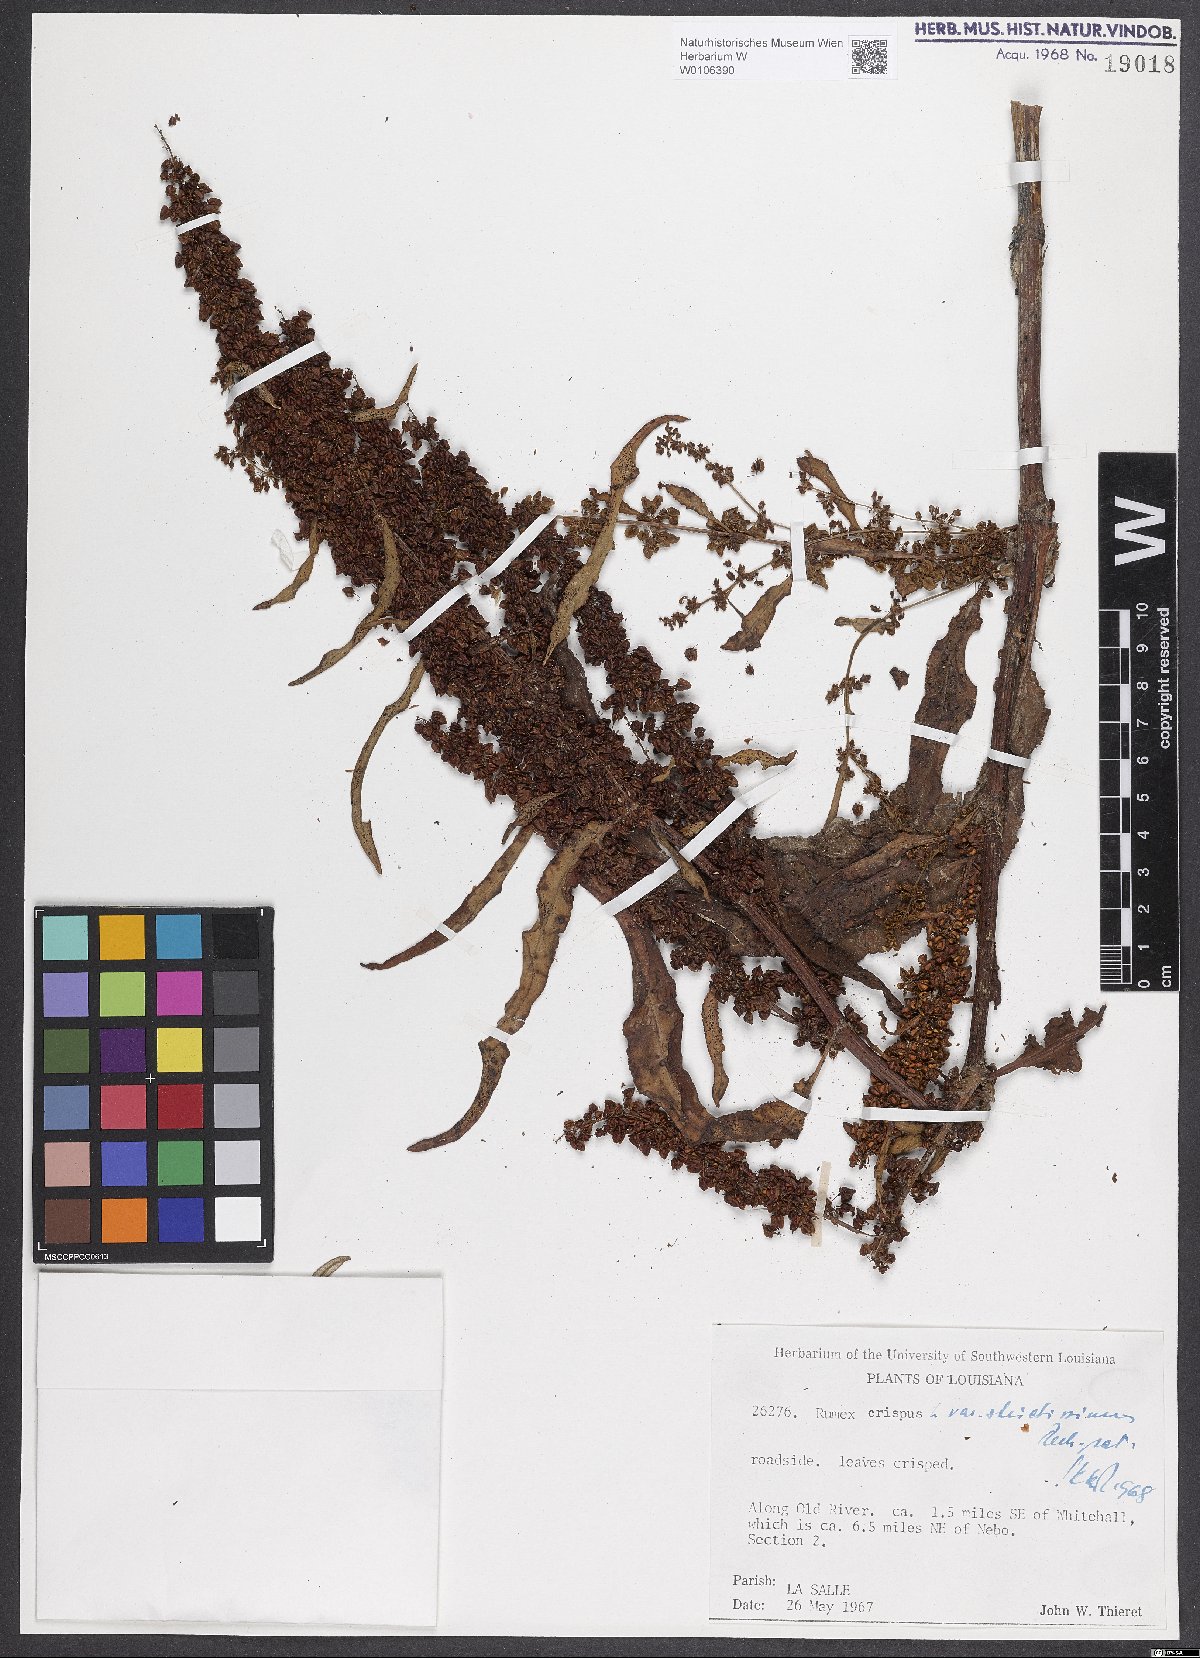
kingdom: Plantae
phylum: Tracheophyta
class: Magnoliopsida
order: Caryophyllales
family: Polygonaceae
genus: Rumex
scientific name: Rumex crispus
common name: Curled dock
